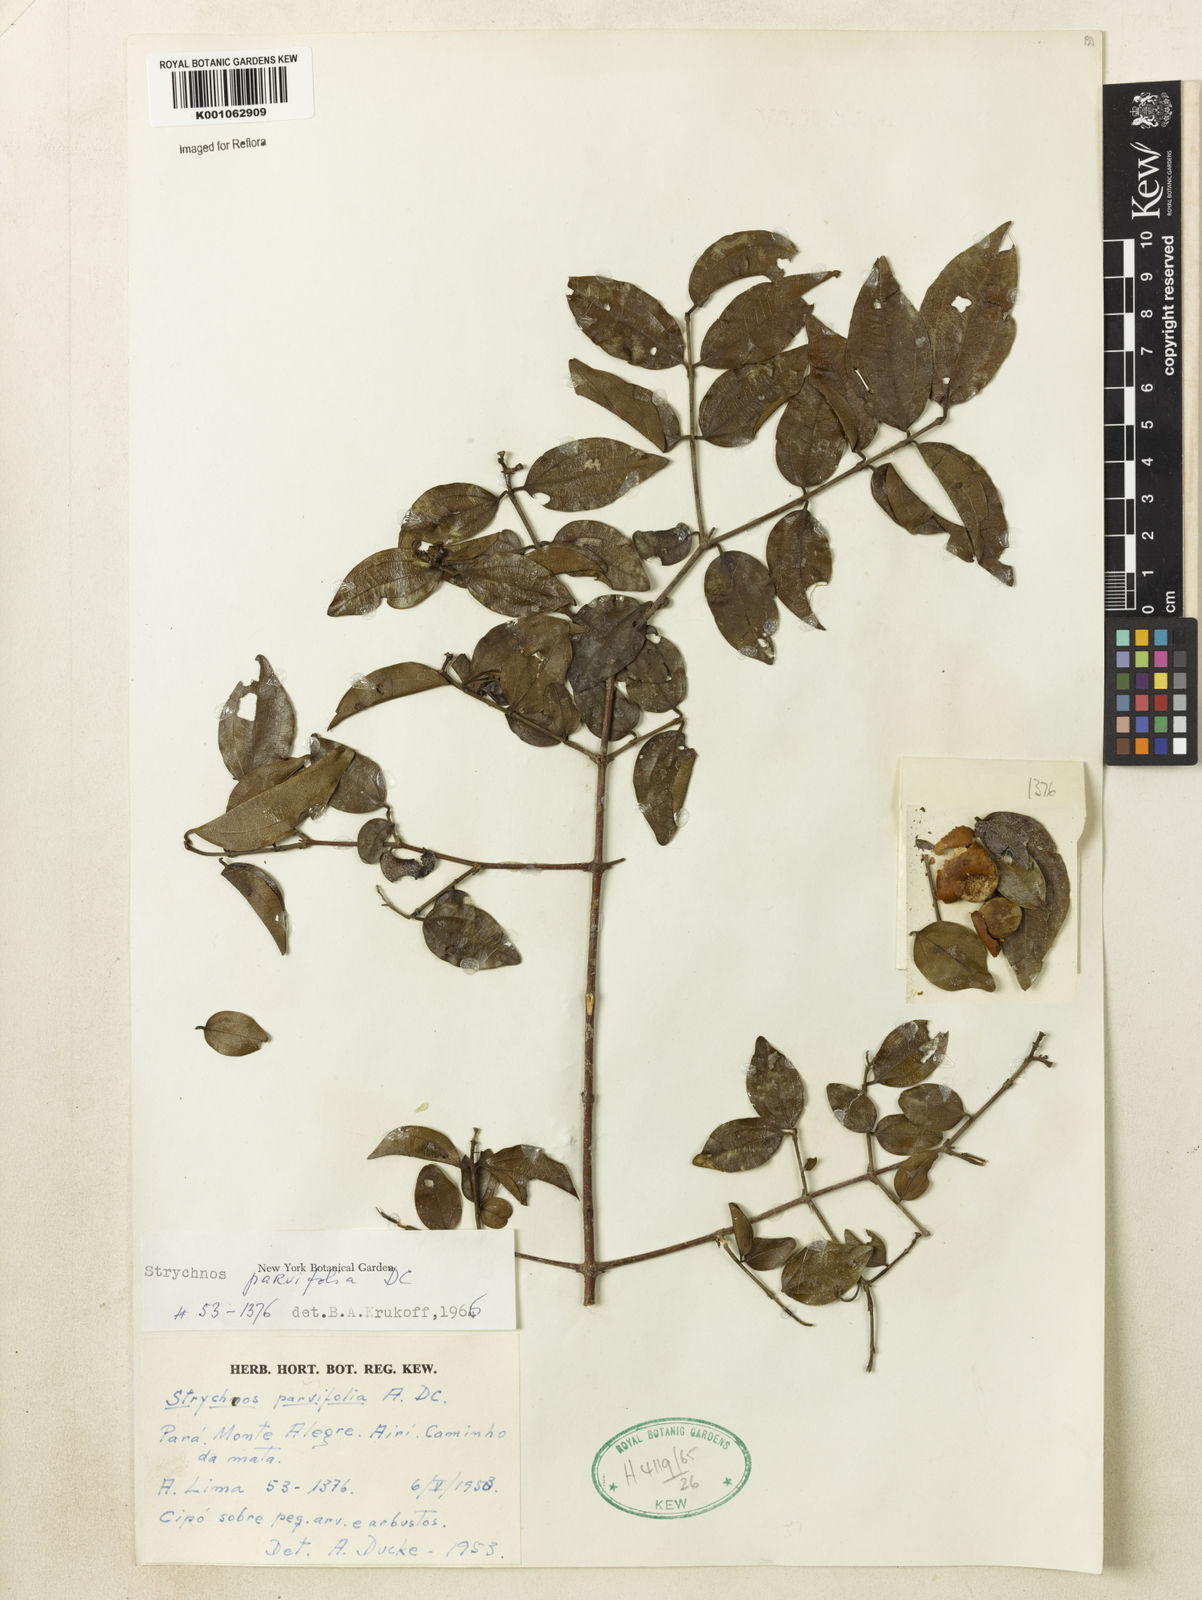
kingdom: Plantae
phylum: Tracheophyta
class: Magnoliopsida
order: Gentianales
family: Loganiaceae
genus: Strychnos
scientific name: Strychnos parvifolia
